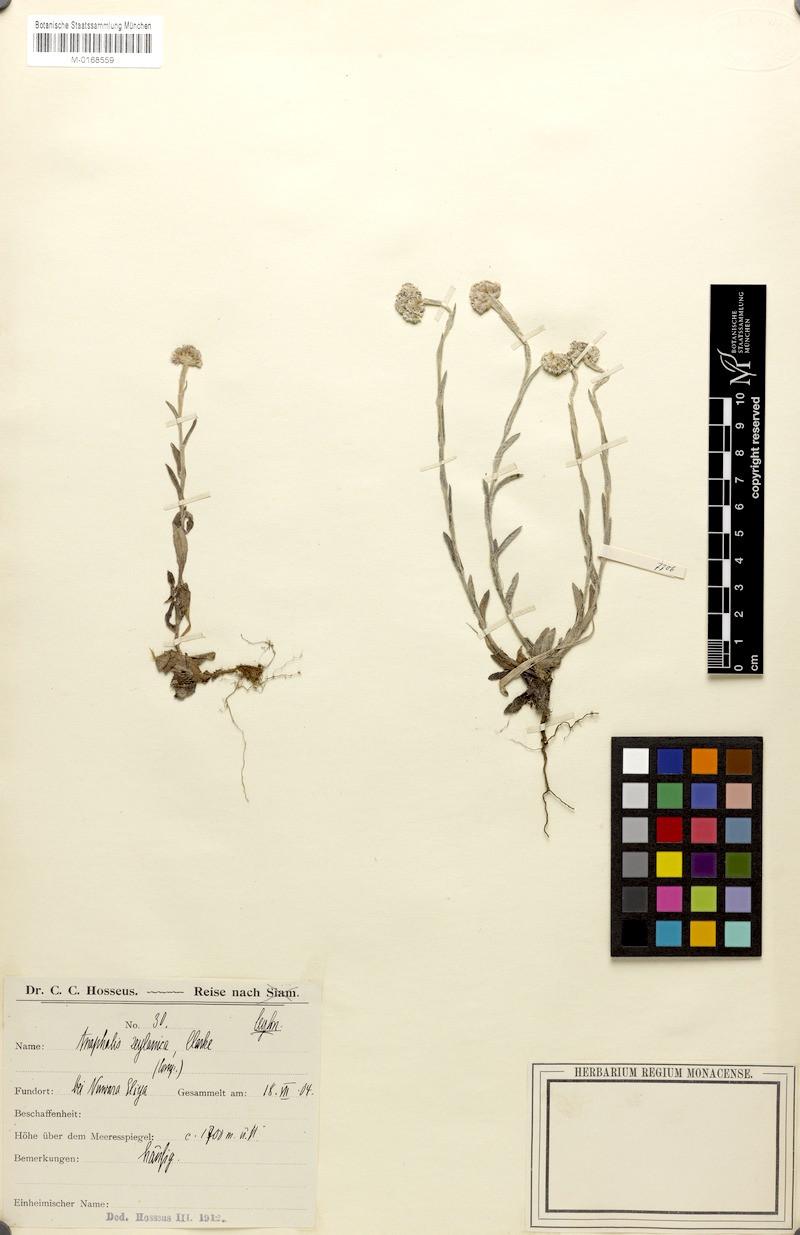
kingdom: Plantae
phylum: Tracheophyta
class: Magnoliopsida
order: Asterales
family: Asteraceae
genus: Anaphalis
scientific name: Anaphalis zeylanica
